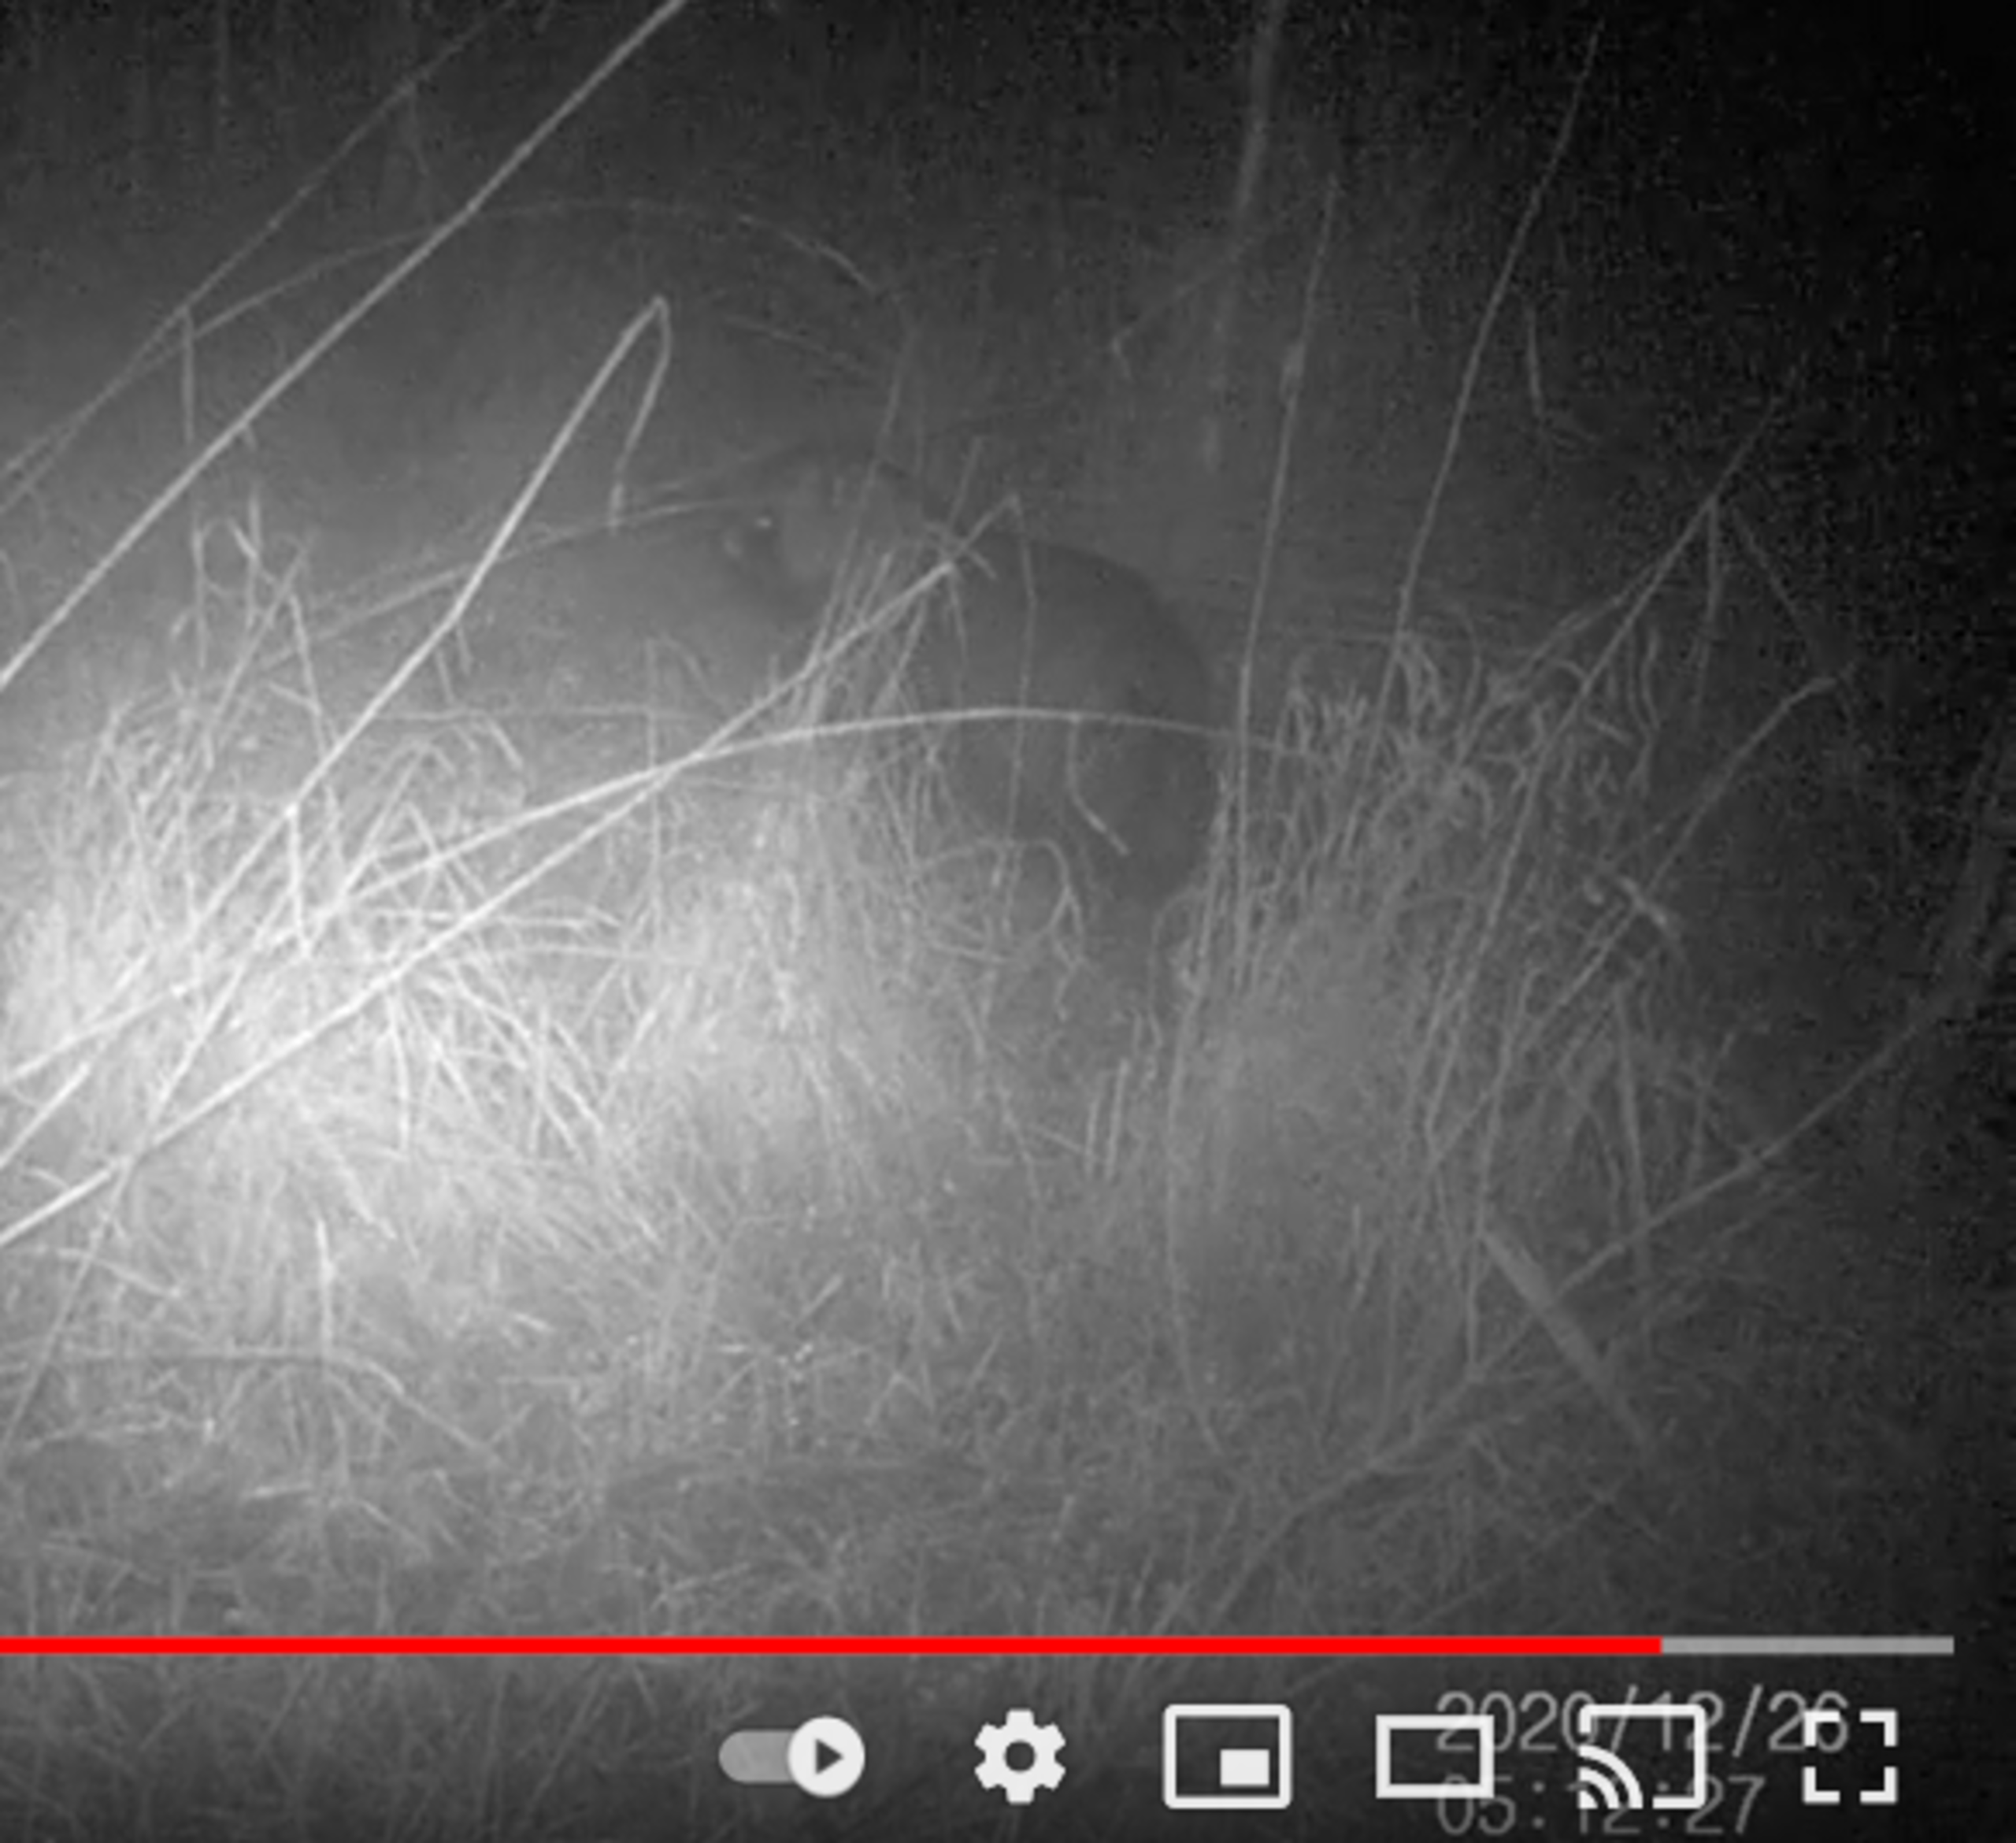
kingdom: Animalia
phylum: Chordata
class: Mammalia
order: Carnivora
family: Canidae
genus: Nyctereutes
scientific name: Nyctereutes procyonoides
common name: Mårhund
